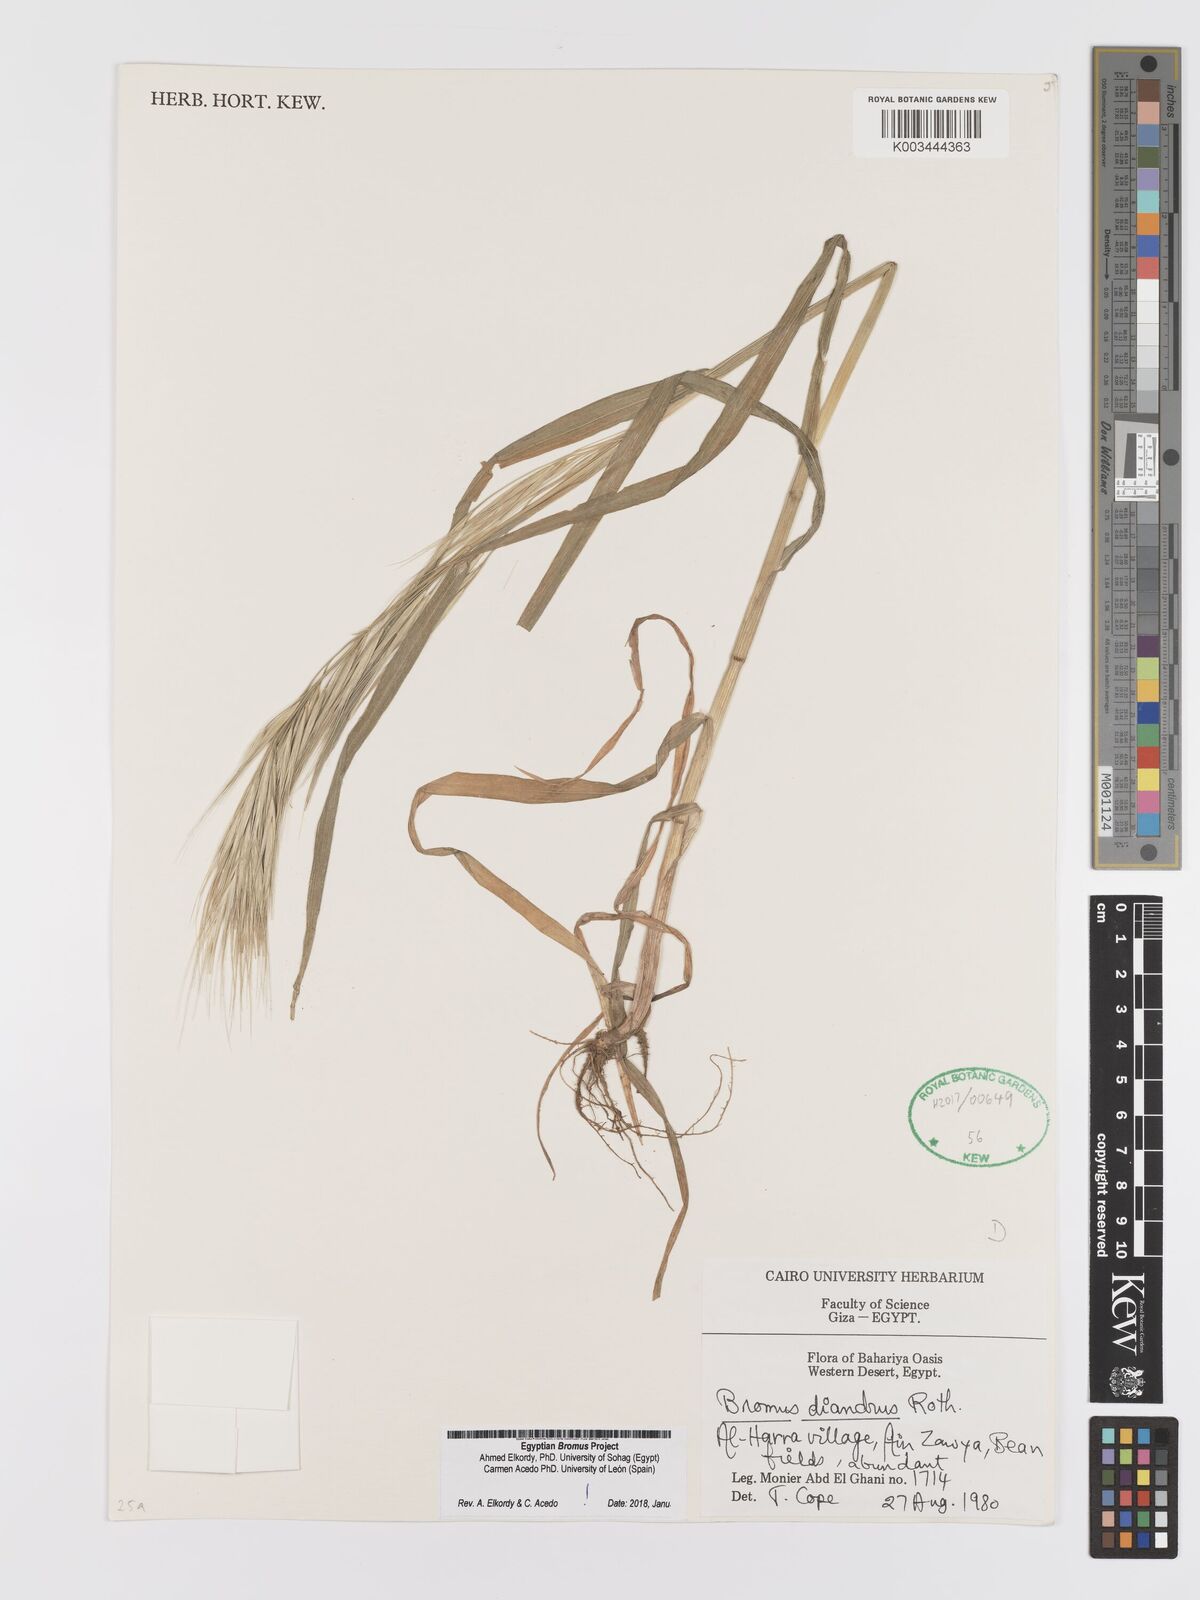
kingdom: Plantae
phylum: Tracheophyta
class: Liliopsida
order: Poales
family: Poaceae
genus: Bromus
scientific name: Bromus diandrus
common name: Ripgut brome
